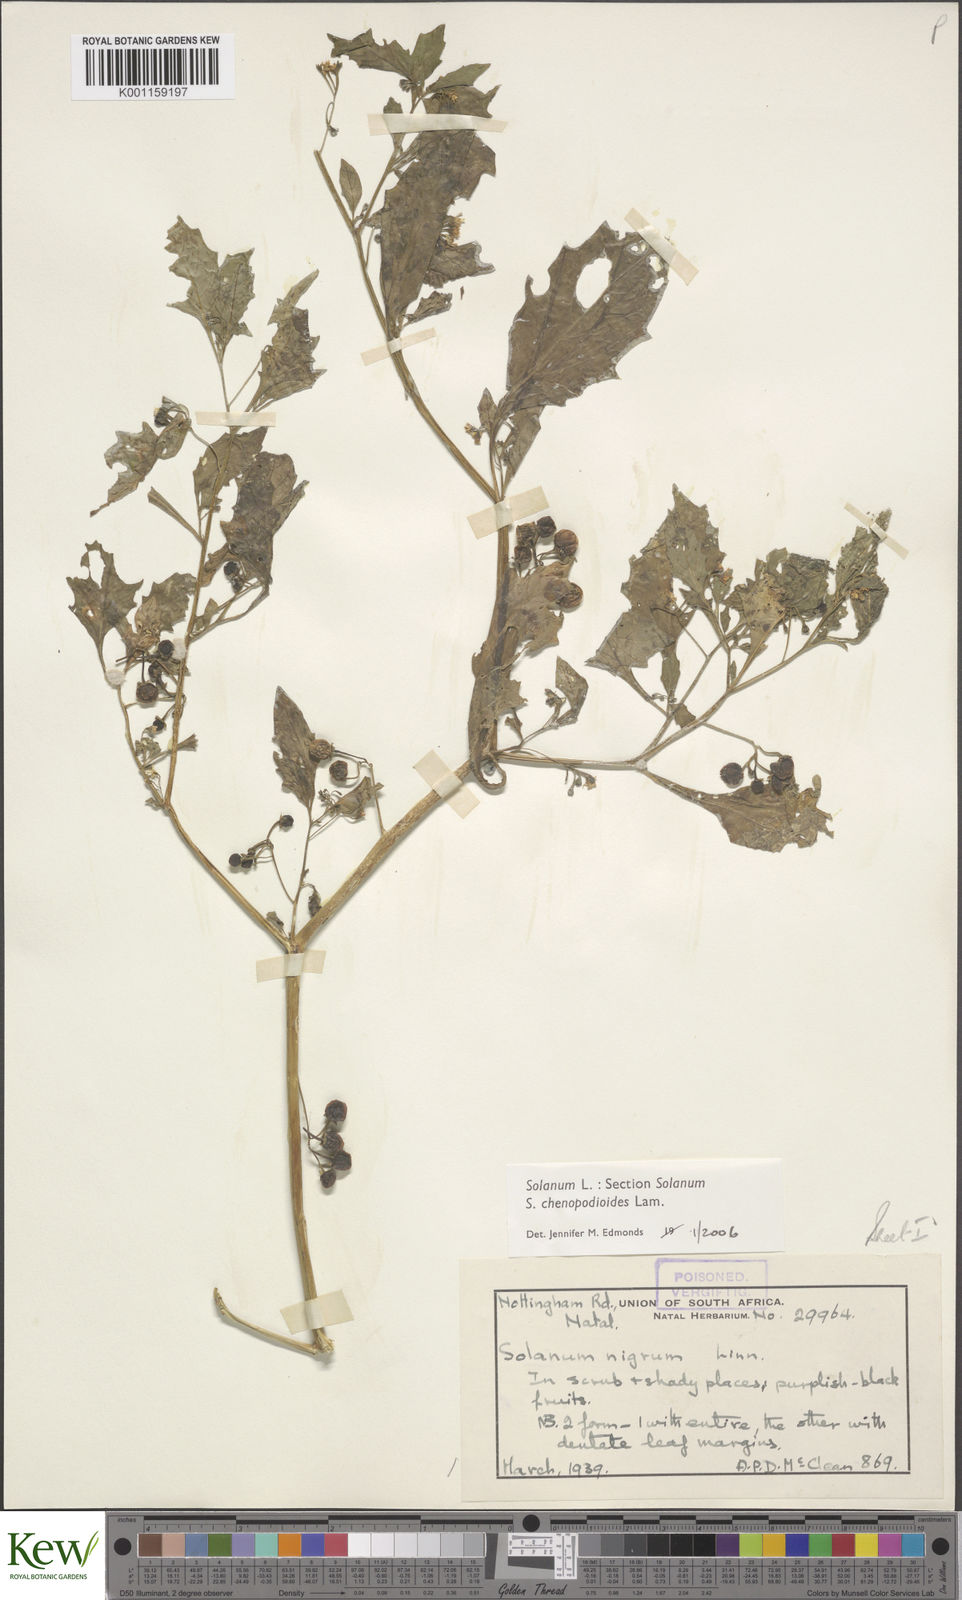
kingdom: Plantae
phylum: Tracheophyta
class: Magnoliopsida
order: Solanales
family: Solanaceae
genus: Solanum
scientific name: Solanum chenopodioides
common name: Tall nightshade
